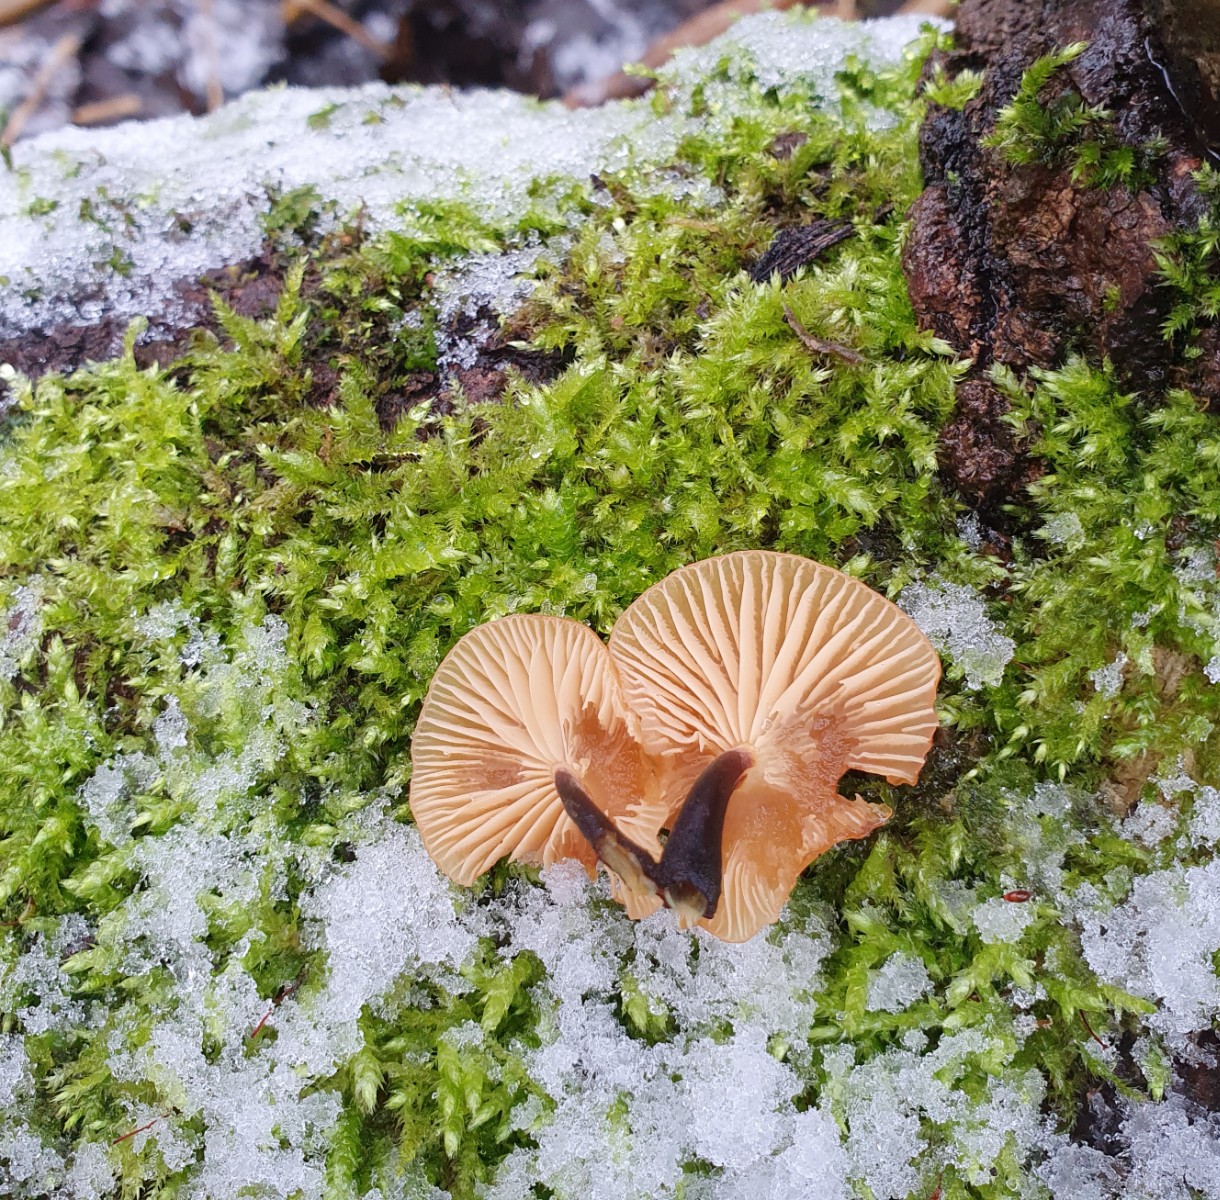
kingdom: Fungi
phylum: Basidiomycota
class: Agaricomycetes
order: Agaricales
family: Physalacriaceae
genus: Flammulina
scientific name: Flammulina velutipes
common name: gul fløjlsfod
